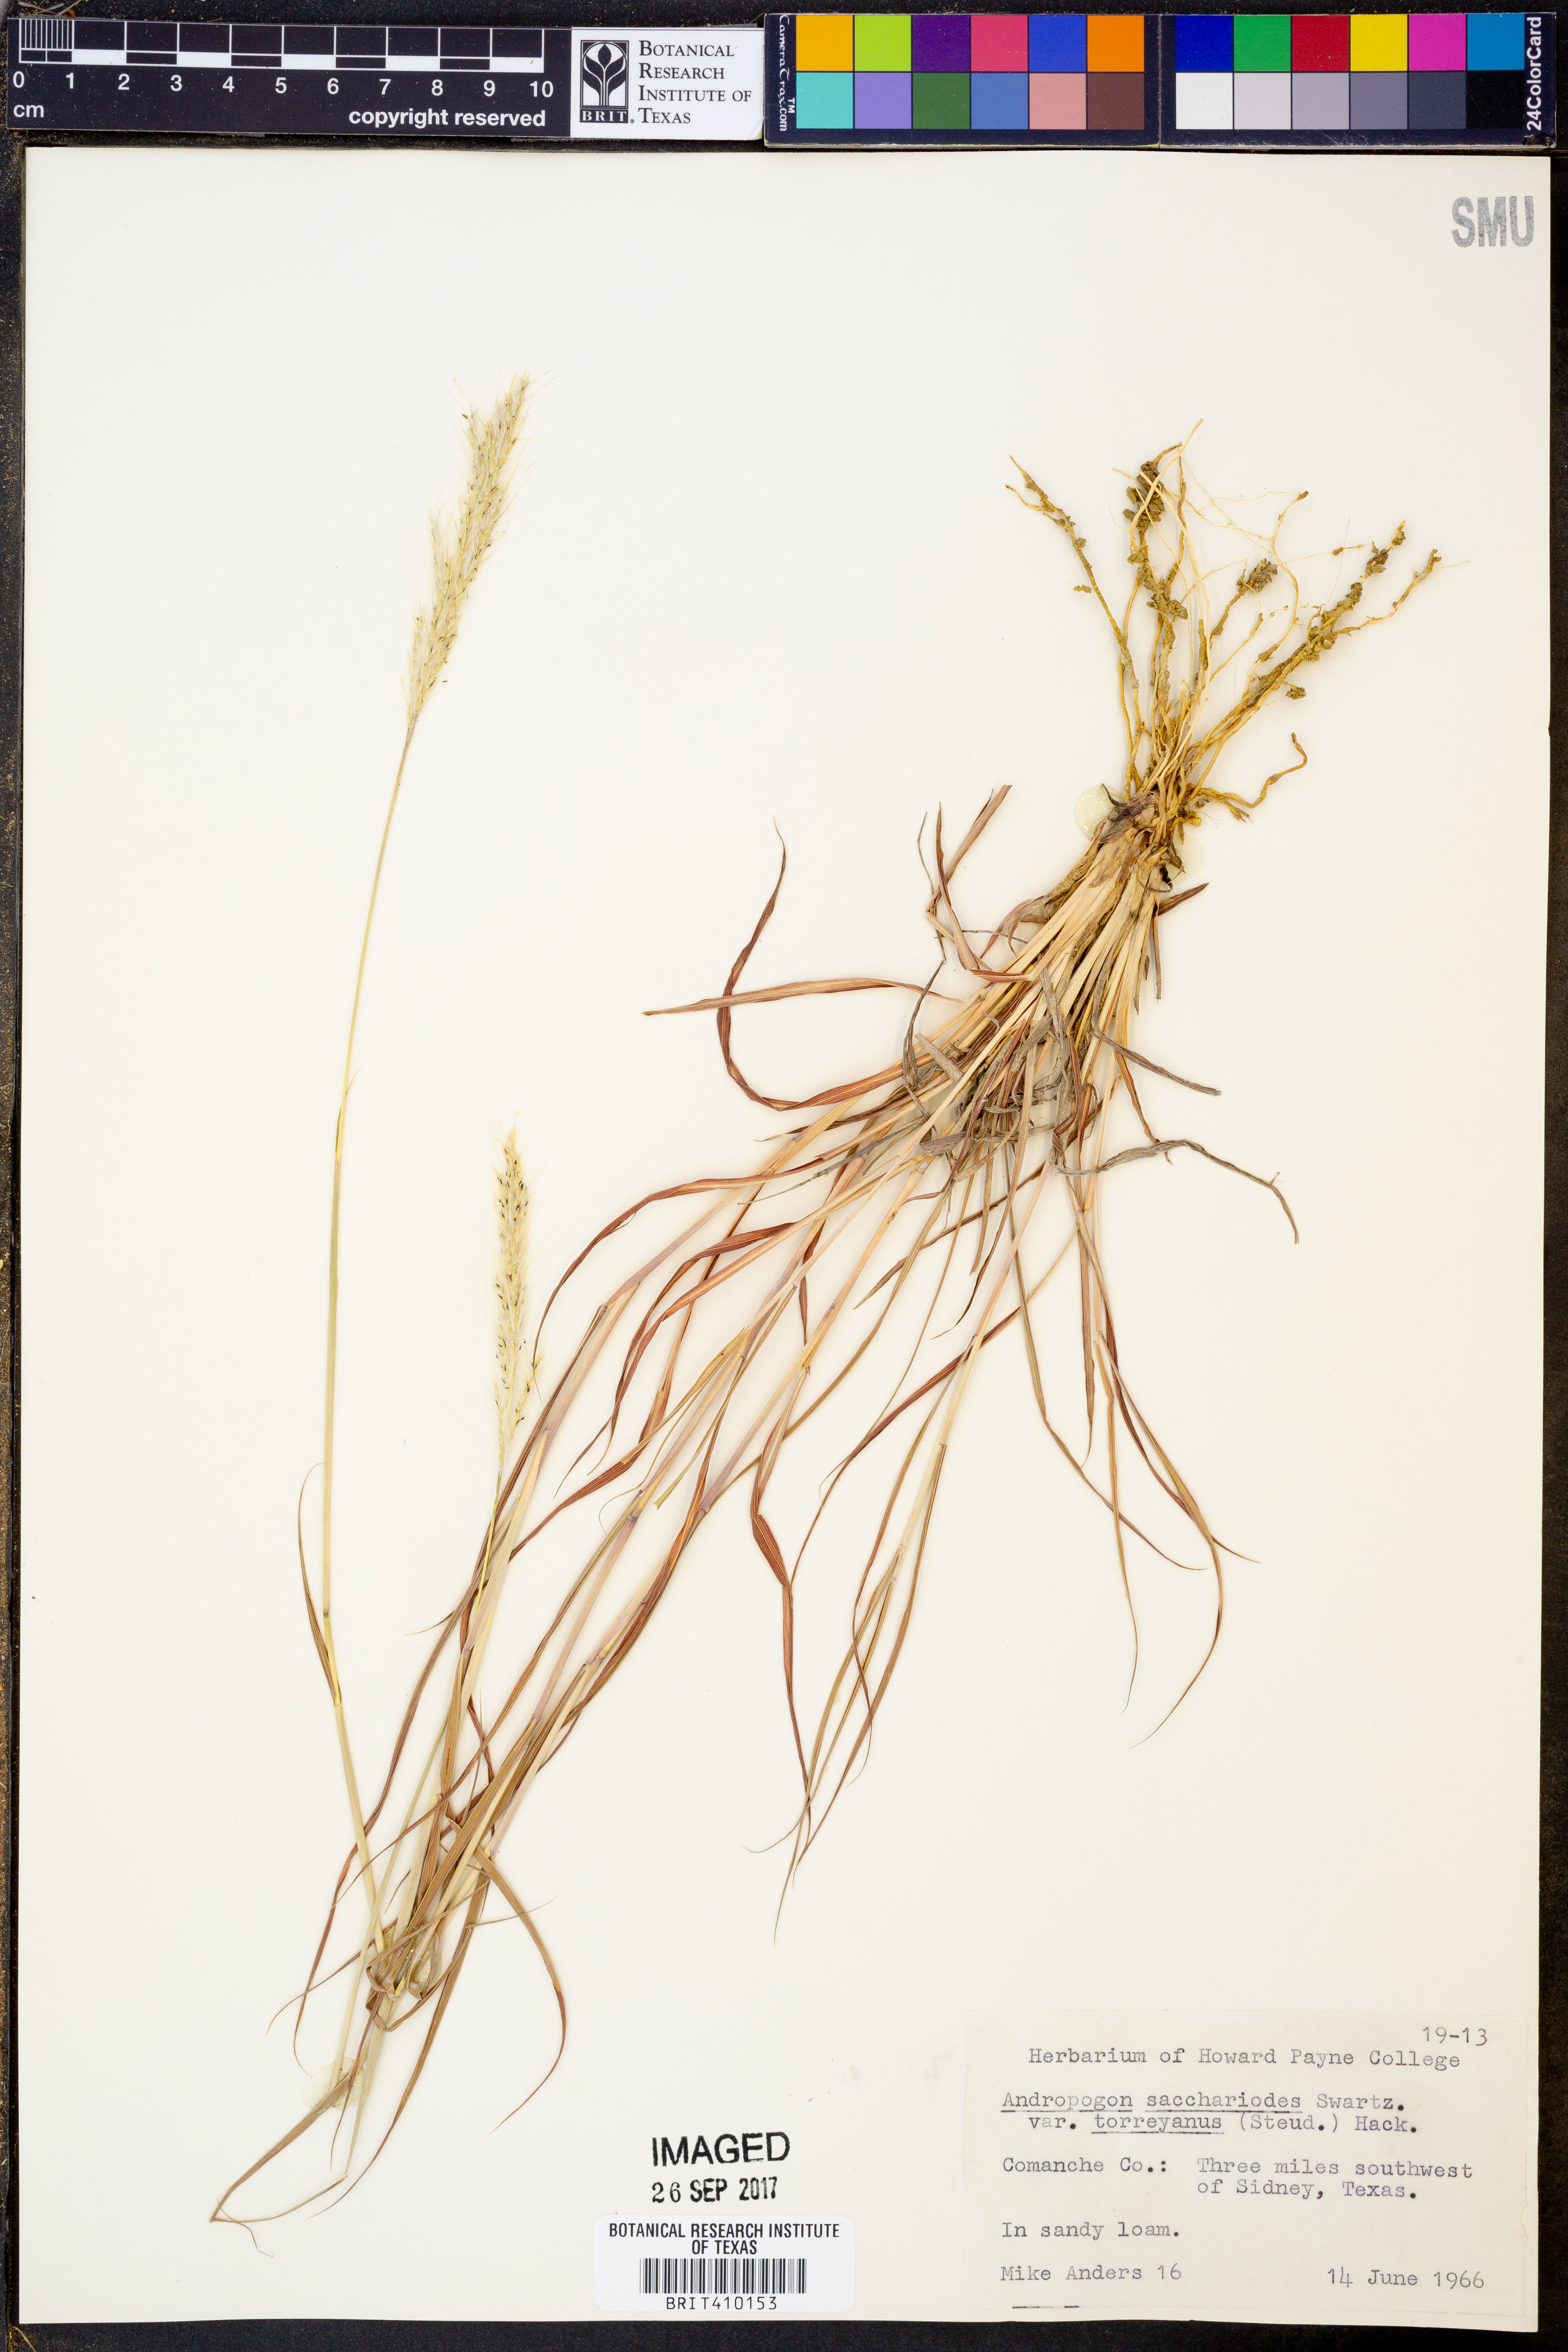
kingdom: Plantae
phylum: Tracheophyta
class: Liliopsida
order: Poales
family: Poaceae
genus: Bothriochloa
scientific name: Bothriochloa torreyana
